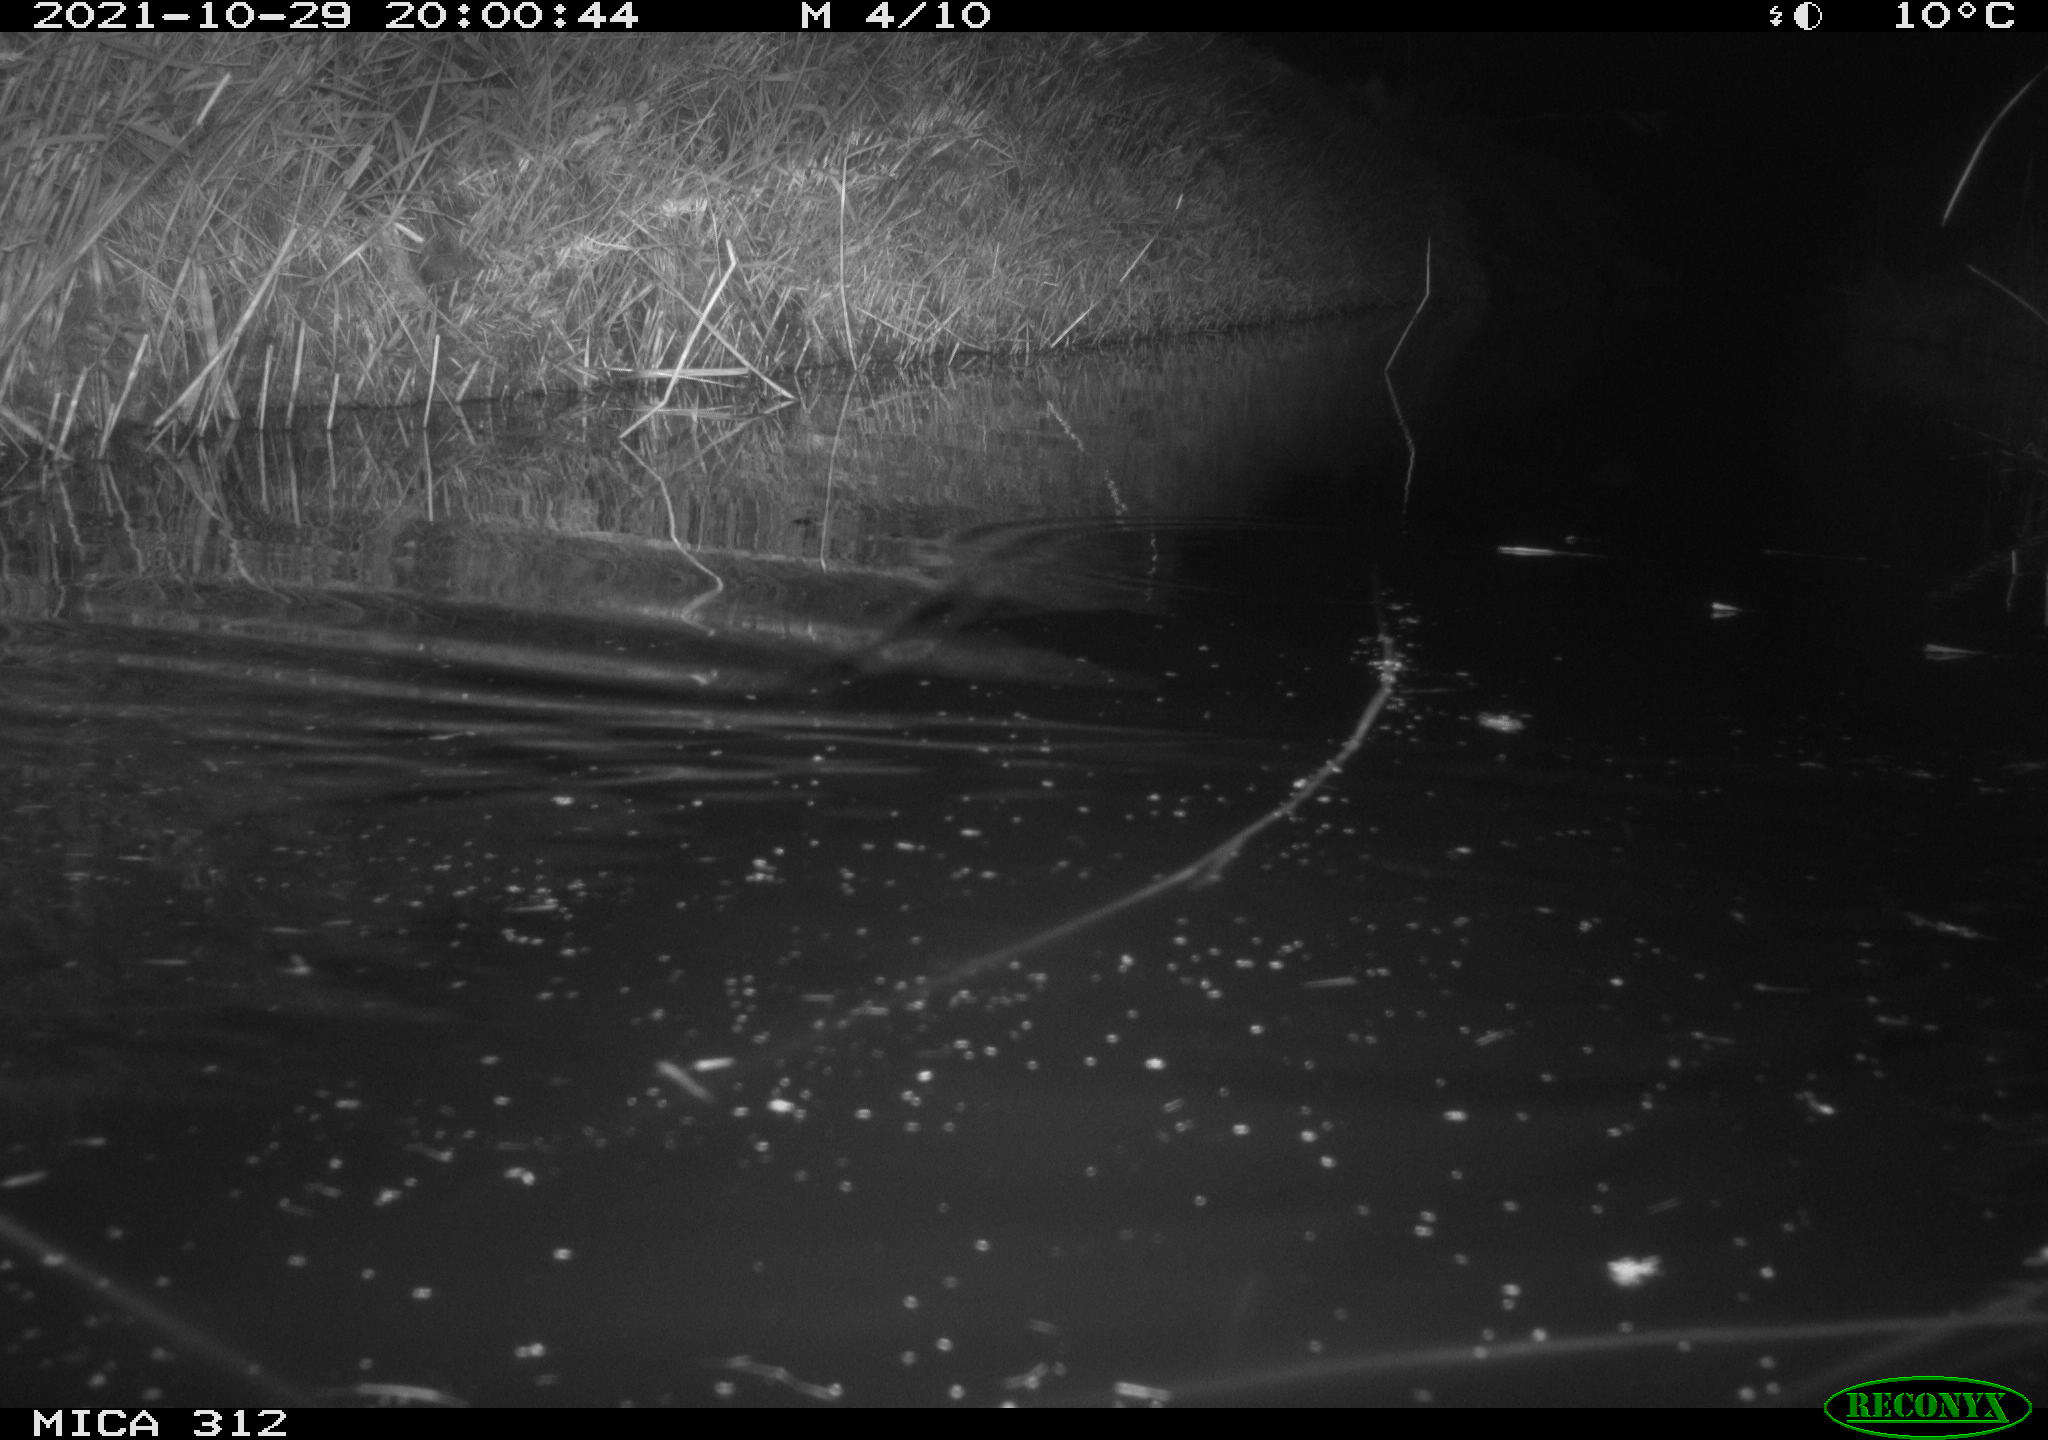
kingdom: Animalia
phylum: Chordata
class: Mammalia
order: Rodentia
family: Muridae
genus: Rattus
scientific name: Rattus norvegicus
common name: Brown rat
